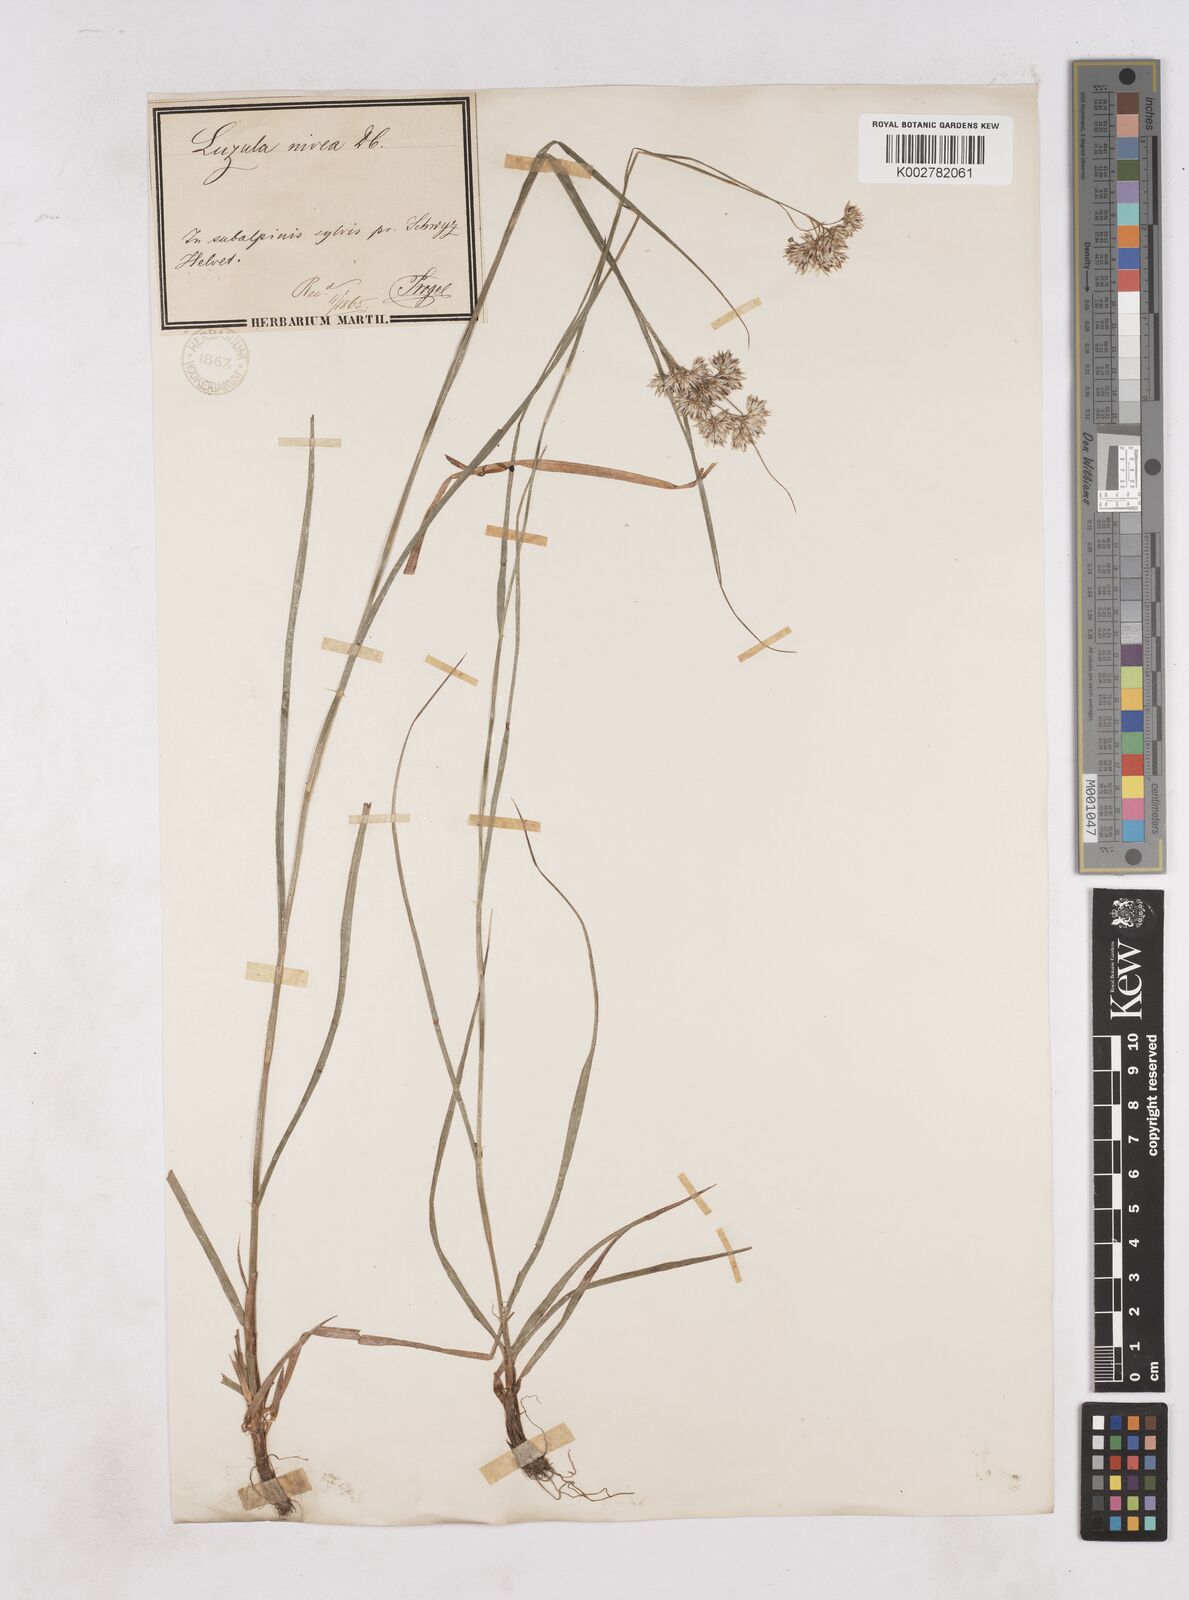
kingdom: Plantae
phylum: Tracheophyta
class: Liliopsida
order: Poales
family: Juncaceae
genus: Luzula
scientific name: Luzula nivea
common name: Snow-white wood-rush
